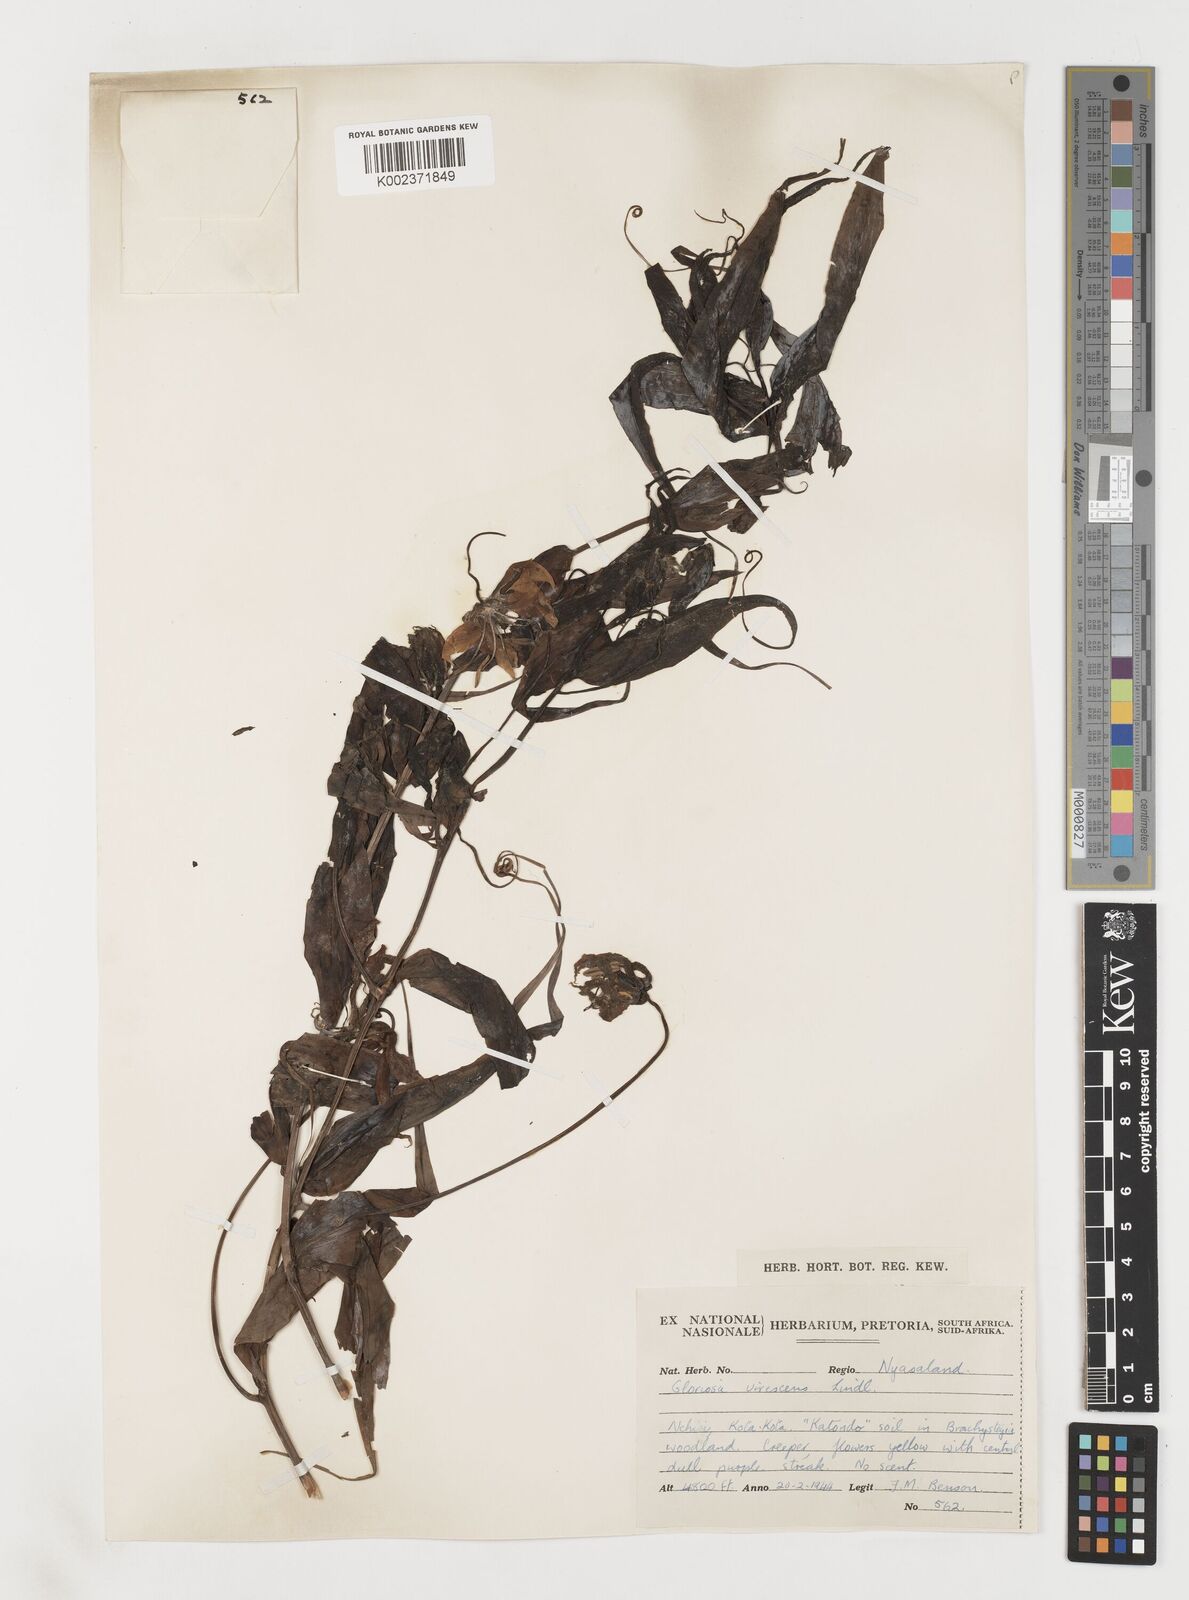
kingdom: Plantae
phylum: Tracheophyta
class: Liliopsida
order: Liliales
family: Colchicaceae
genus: Gloriosa
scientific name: Gloriosa simplex
